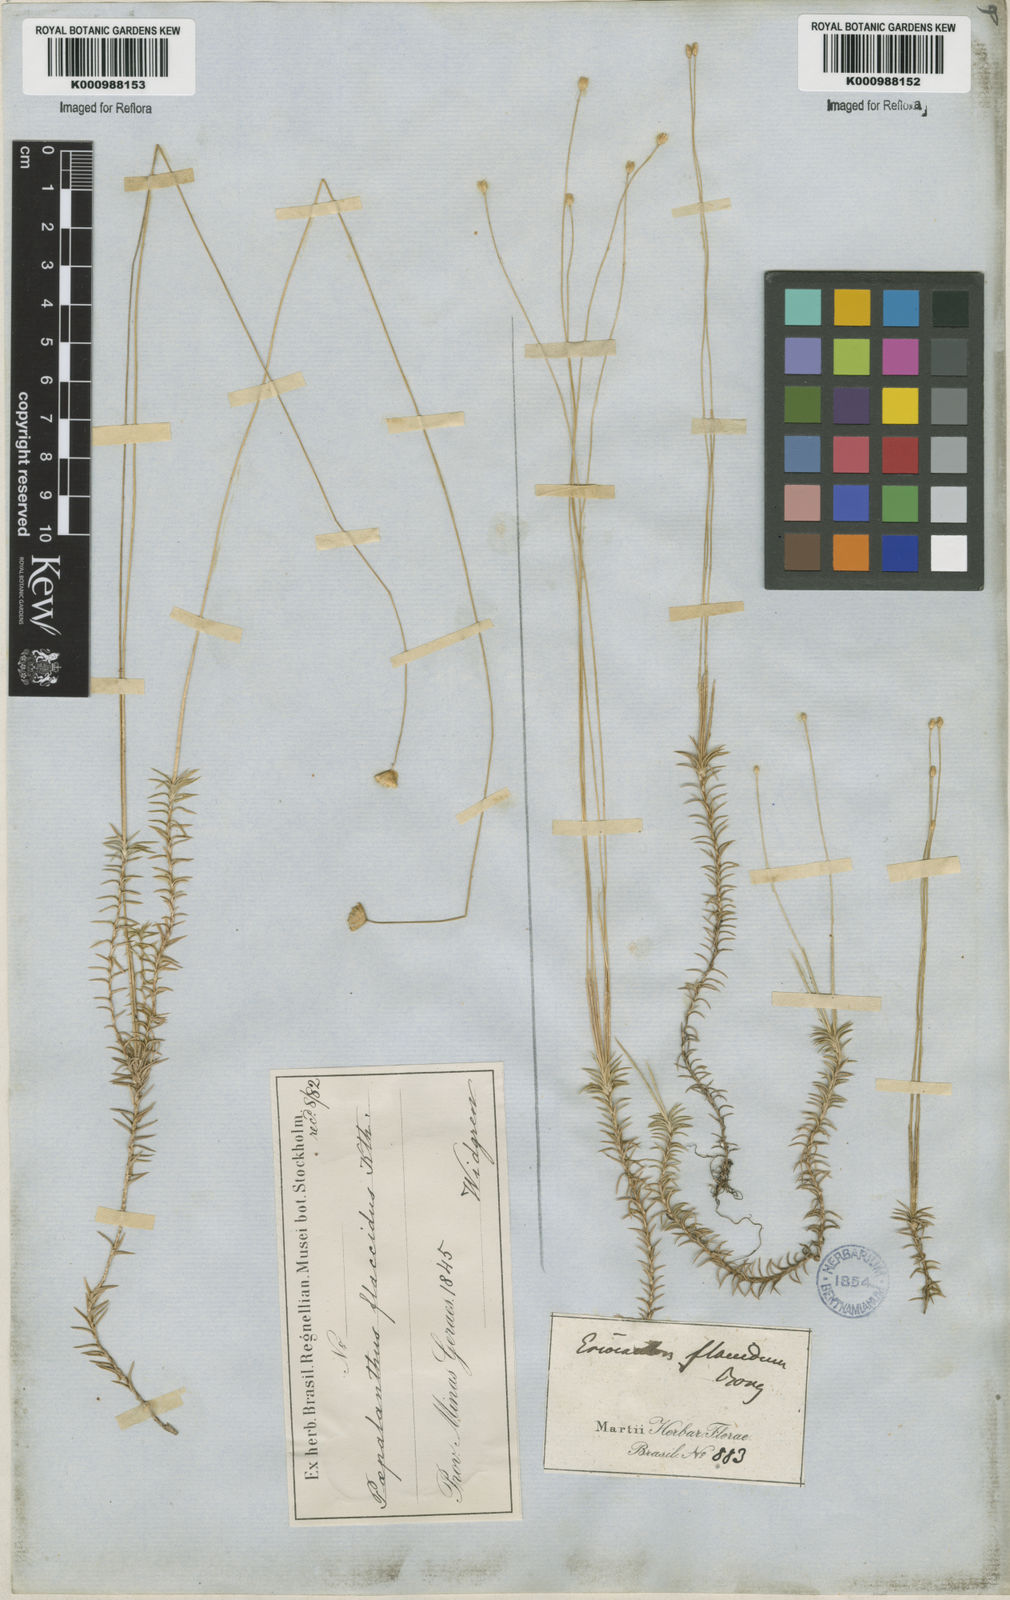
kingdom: Plantae
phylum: Tracheophyta
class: Liliopsida
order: Poales
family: Eriocaulaceae
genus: Paepalanthus
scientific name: Paepalanthus flaccidus
